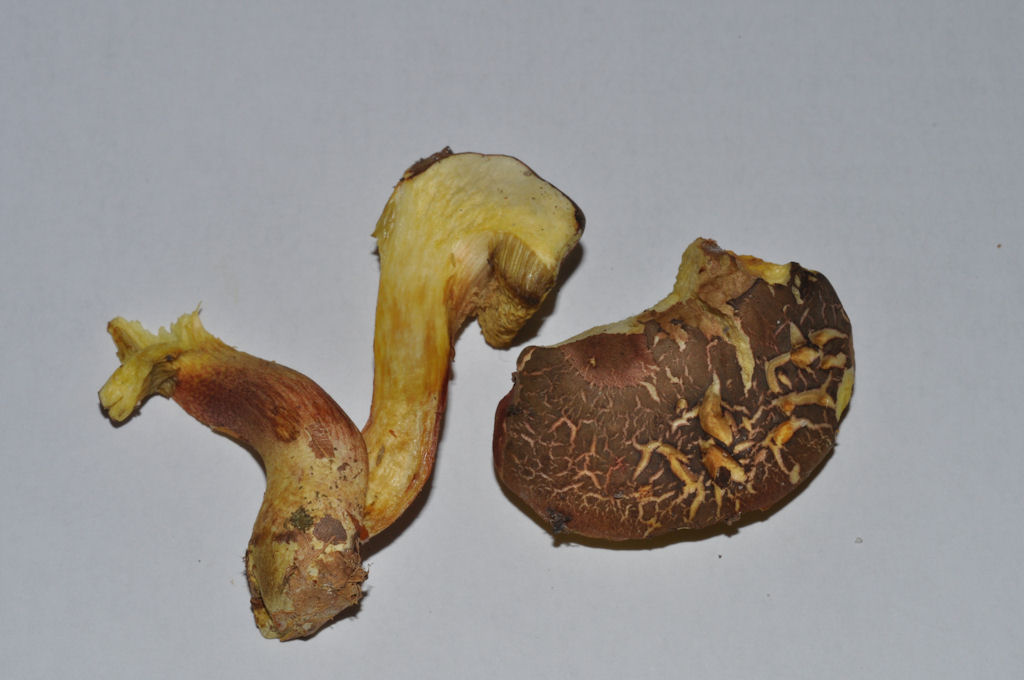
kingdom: Fungi
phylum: Basidiomycota
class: Agaricomycetes
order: Boletales
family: Boletaceae
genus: Xerocomellus
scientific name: Xerocomellus chrysenteron
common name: rødsprukken rørhat
